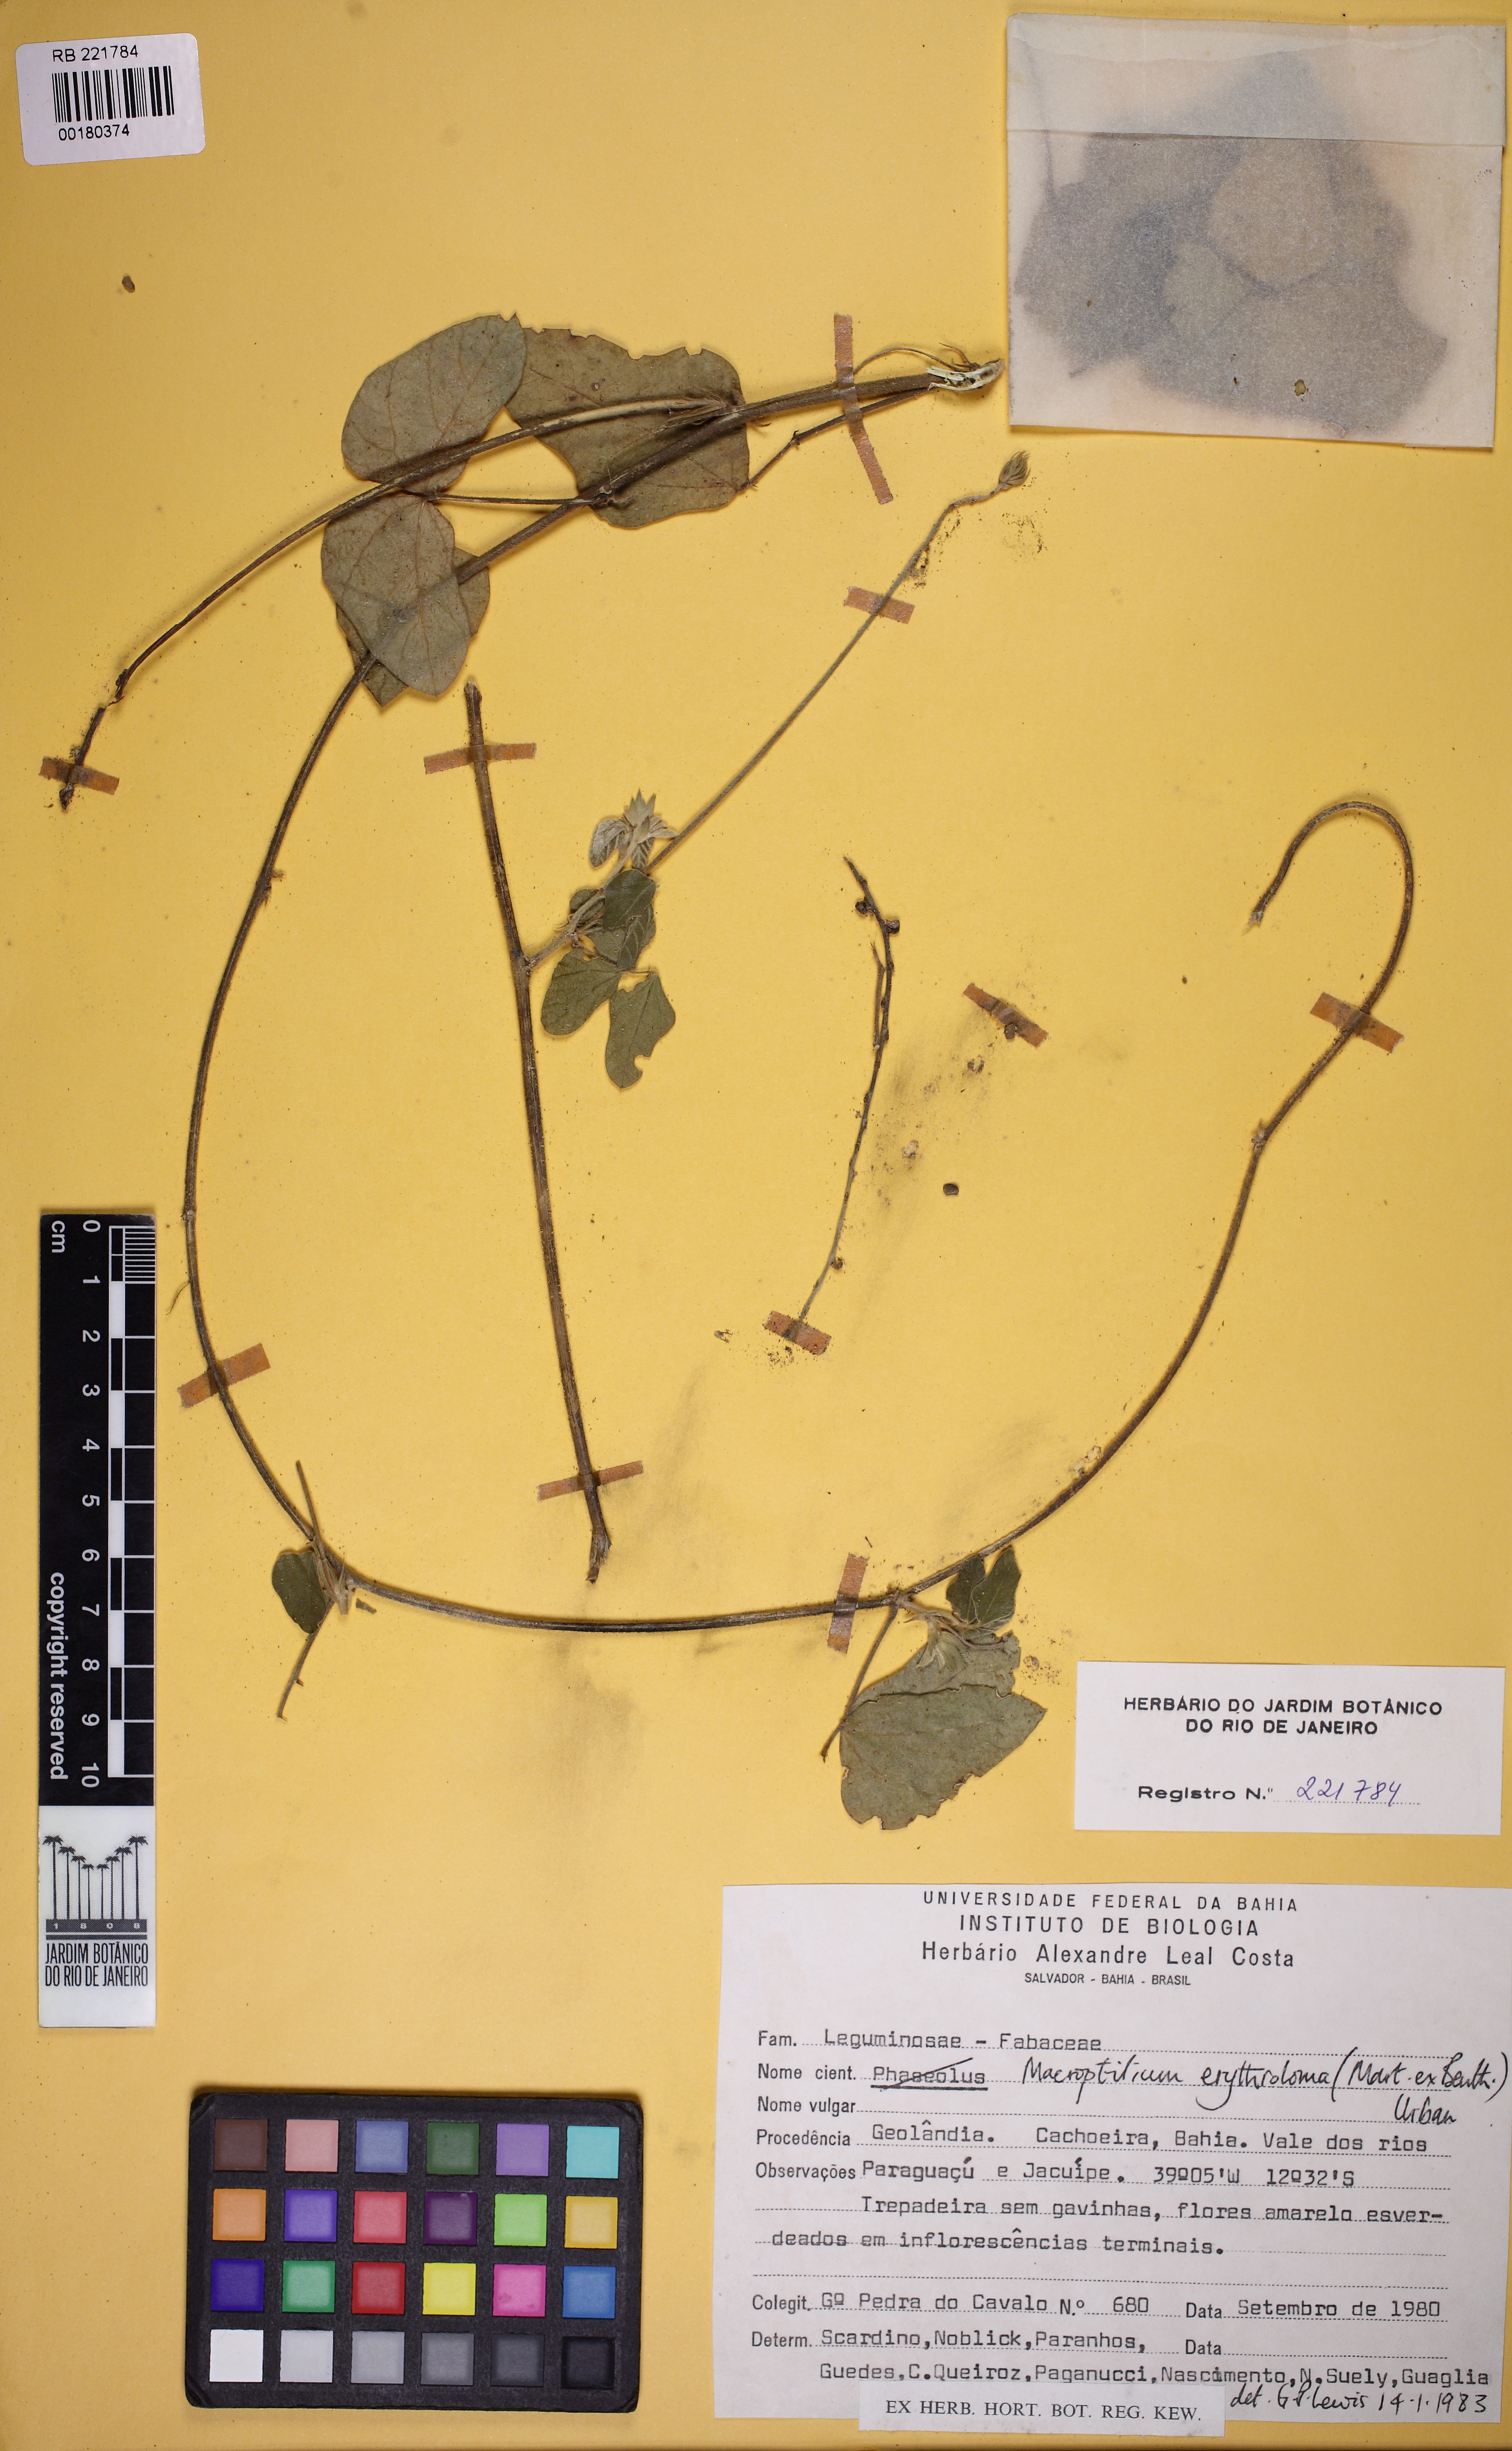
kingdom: Plantae
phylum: Tracheophyta
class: Magnoliopsida
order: Fabales
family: Fabaceae
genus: Macroptilium
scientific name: Macroptilium
